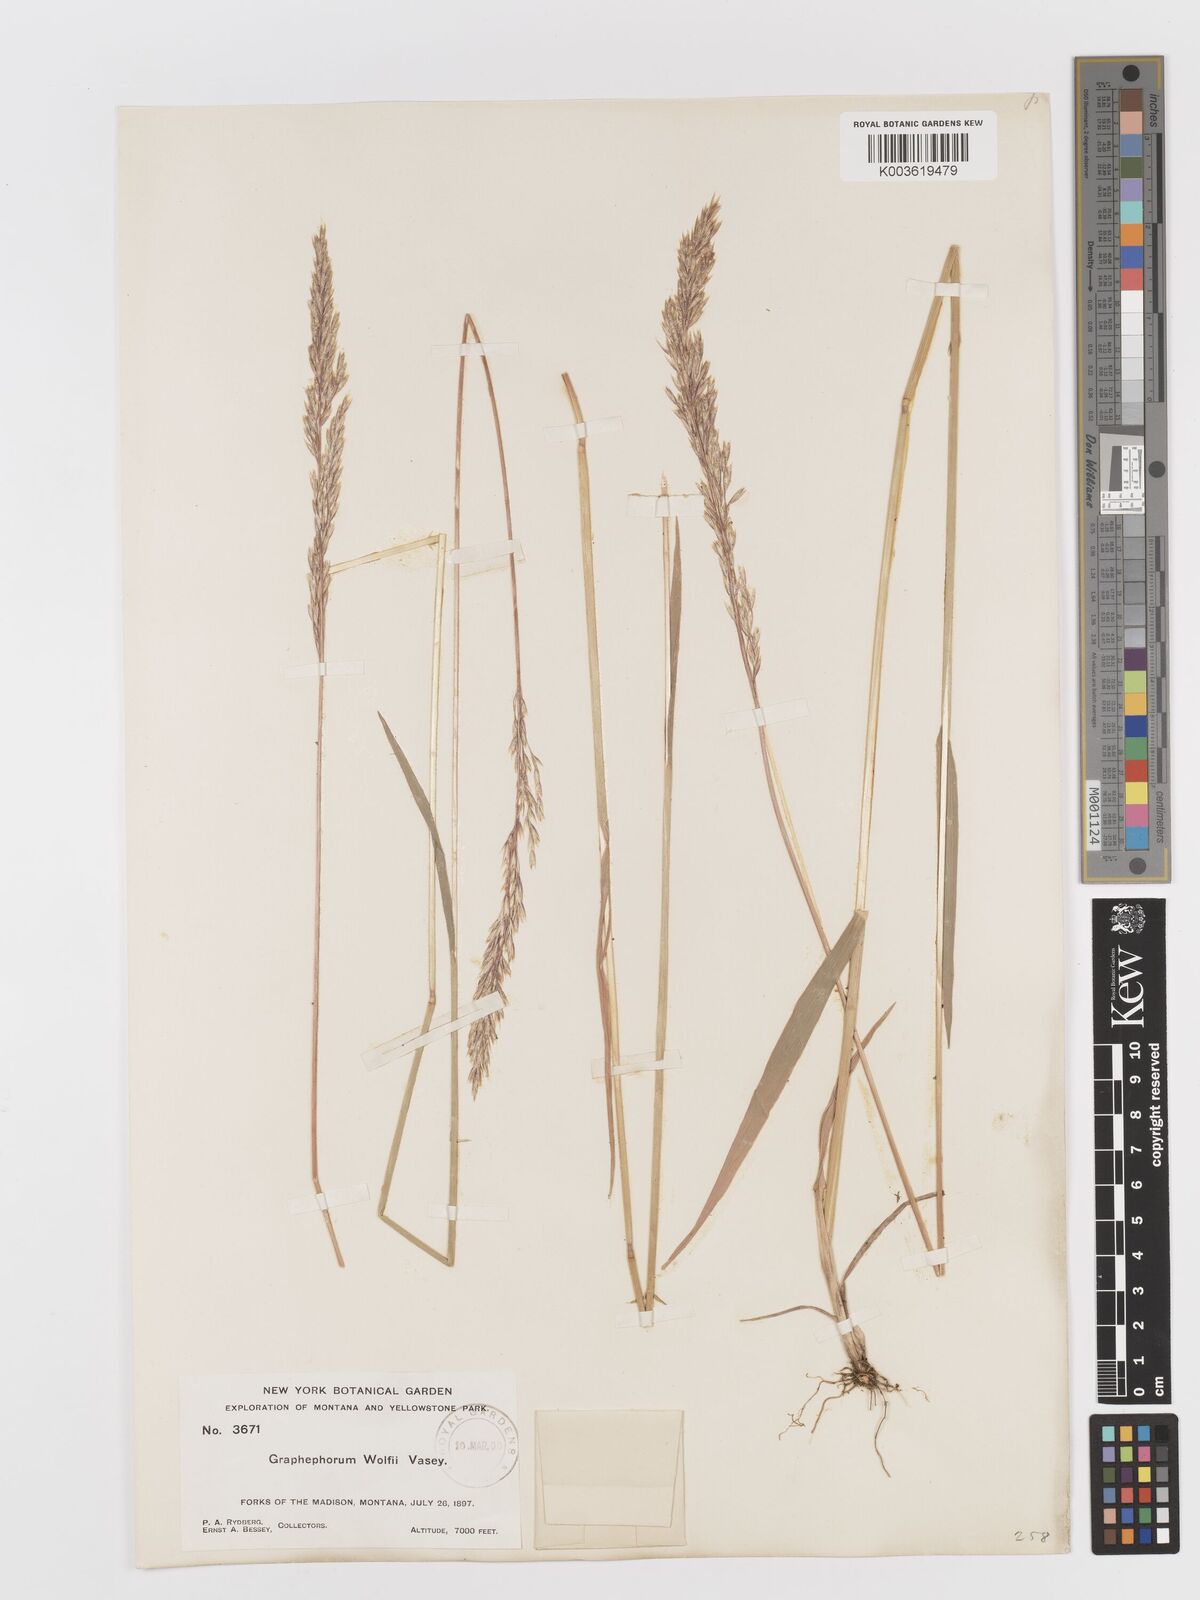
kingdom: Plantae
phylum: Tracheophyta
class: Liliopsida
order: Poales
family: Poaceae
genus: Graphephorum
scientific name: Graphephorum wolfii
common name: Wolf's trisetum
